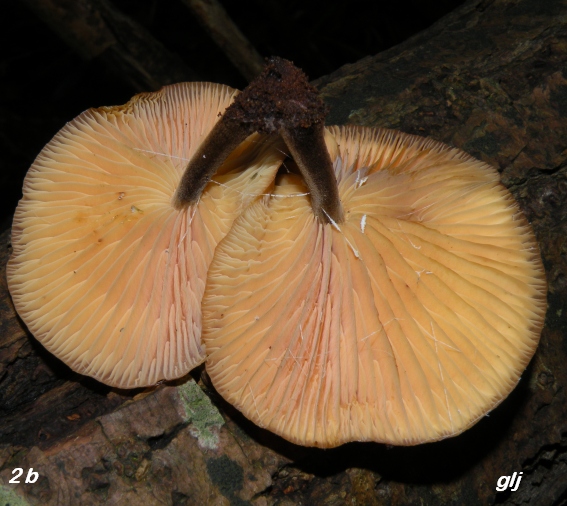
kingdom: Fungi
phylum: Basidiomycota
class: Agaricomycetes
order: Agaricales
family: Physalacriaceae
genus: Flammulina
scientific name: Flammulina velutipes
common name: gul fløjlsfod
